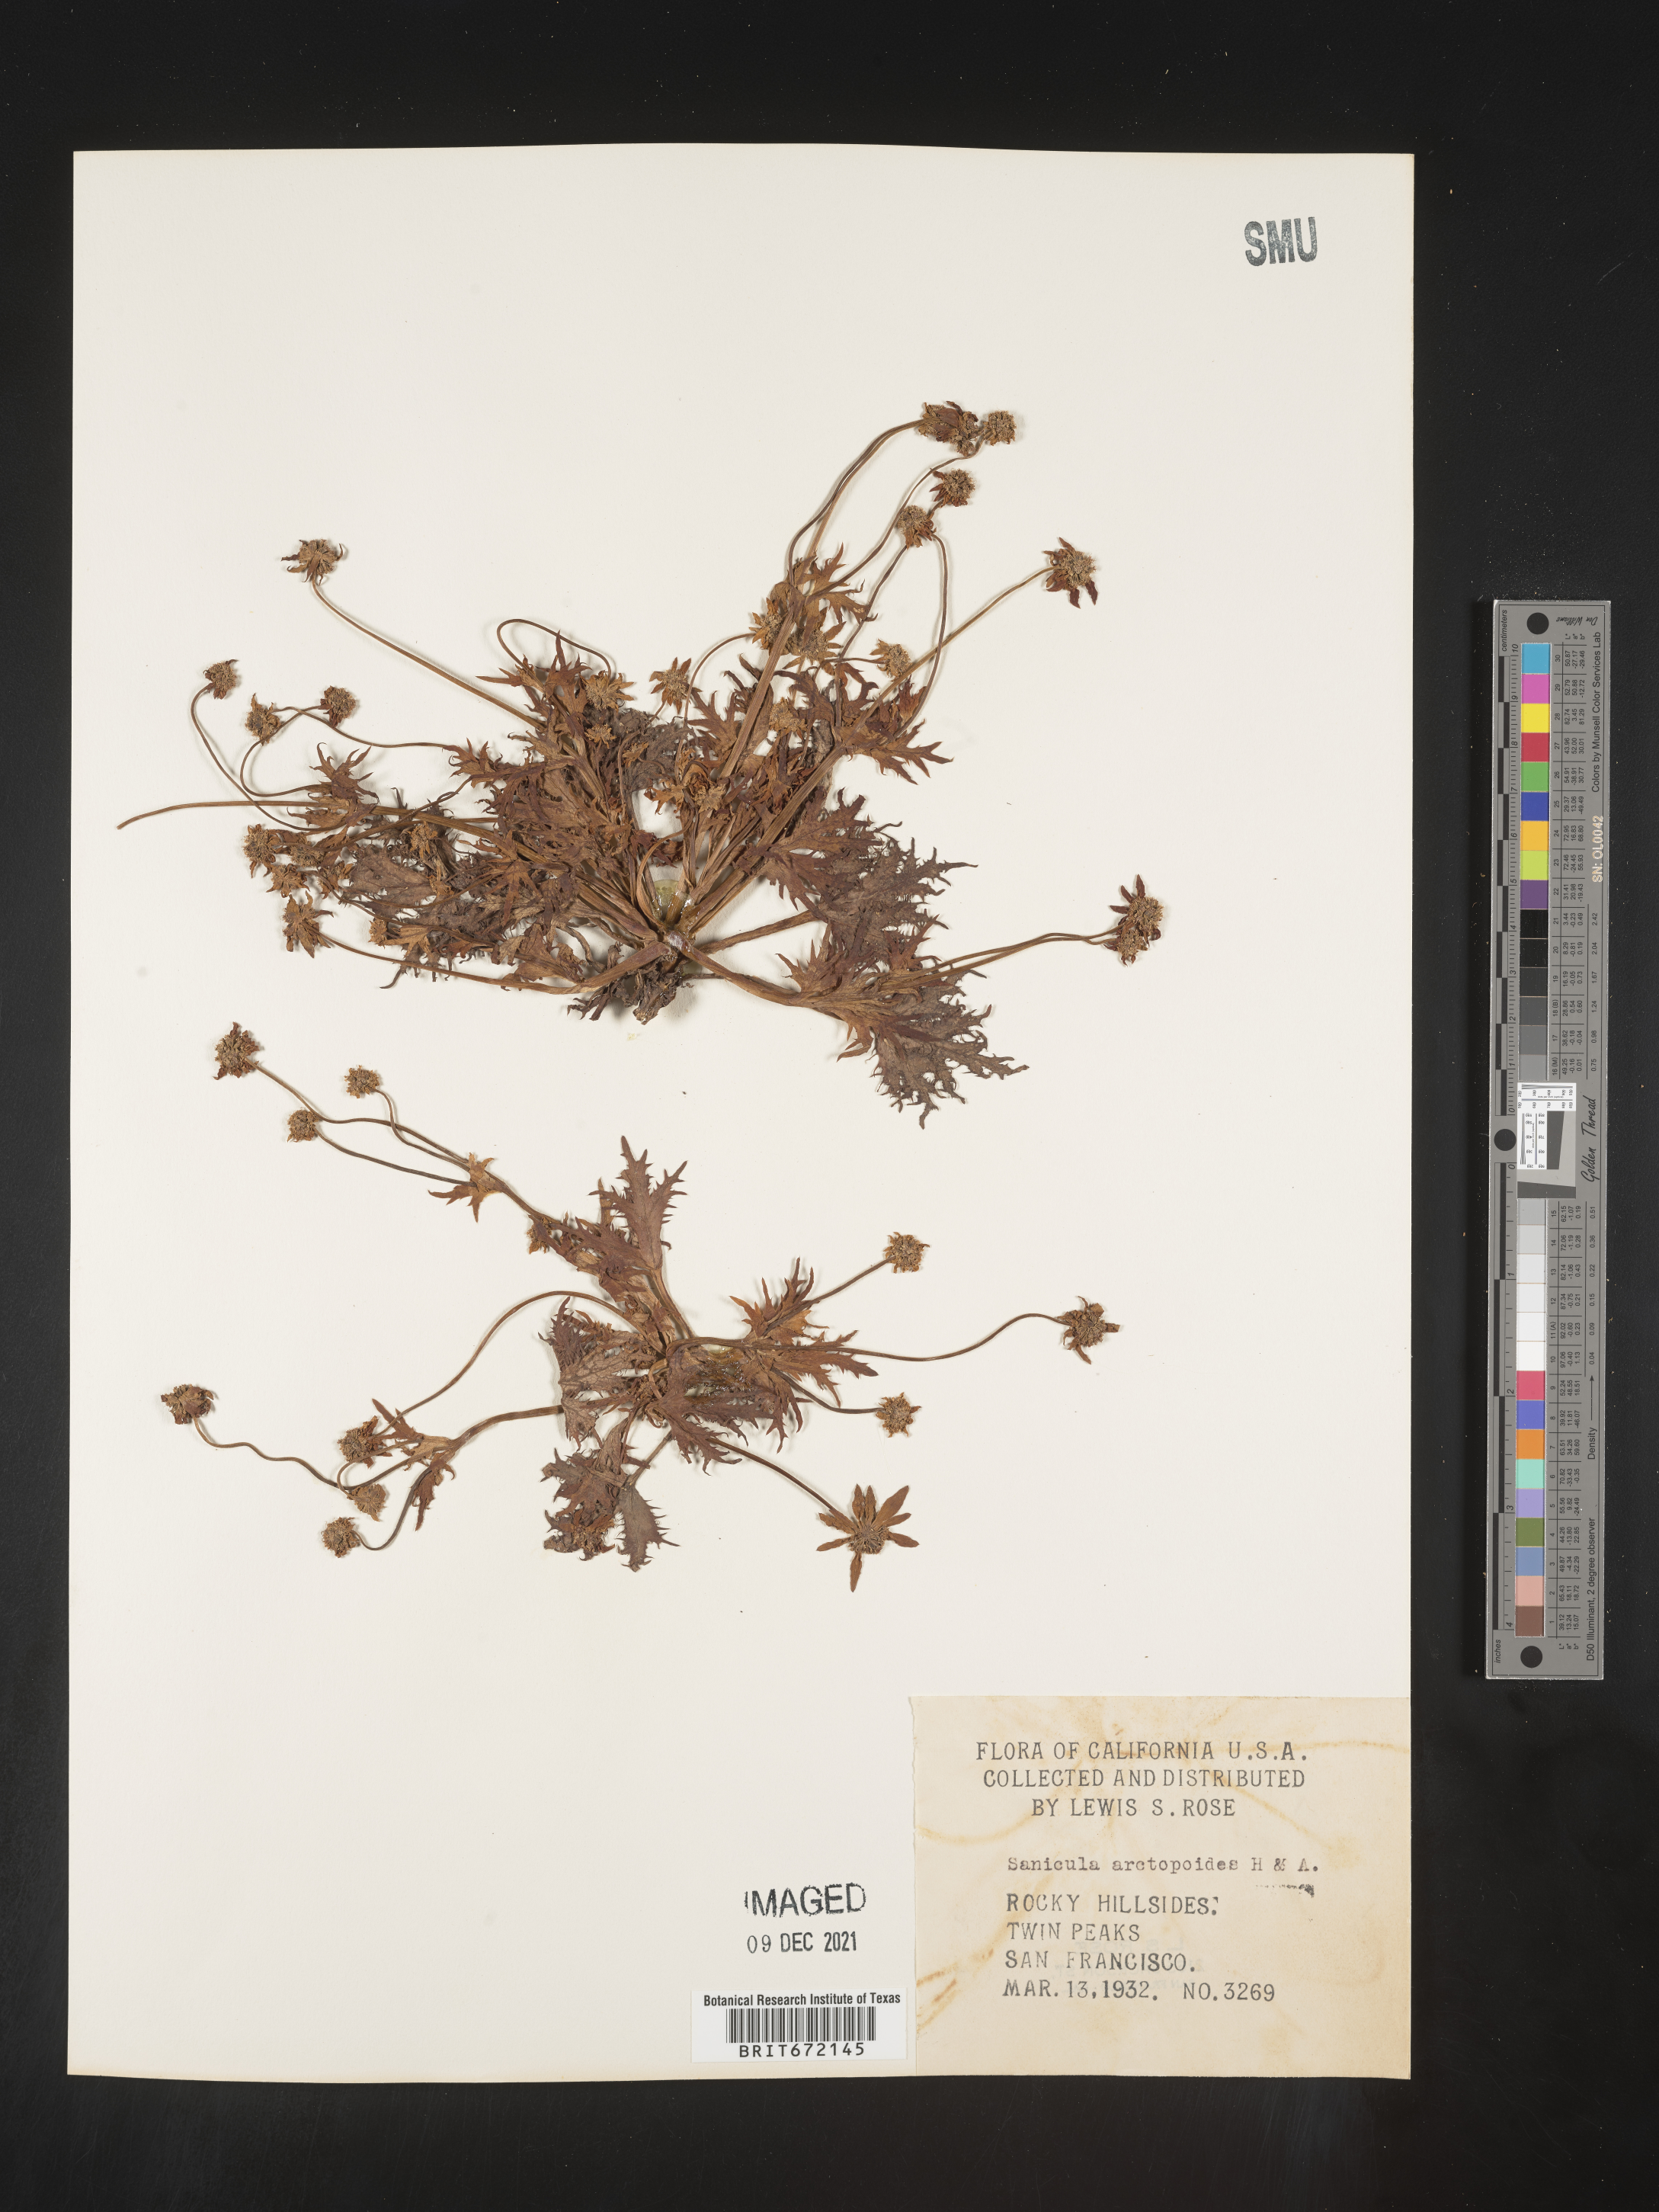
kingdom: Plantae
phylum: Tracheophyta
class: Magnoliopsida
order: Apiales
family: Apiaceae
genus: Sanicula
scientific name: Sanicula
